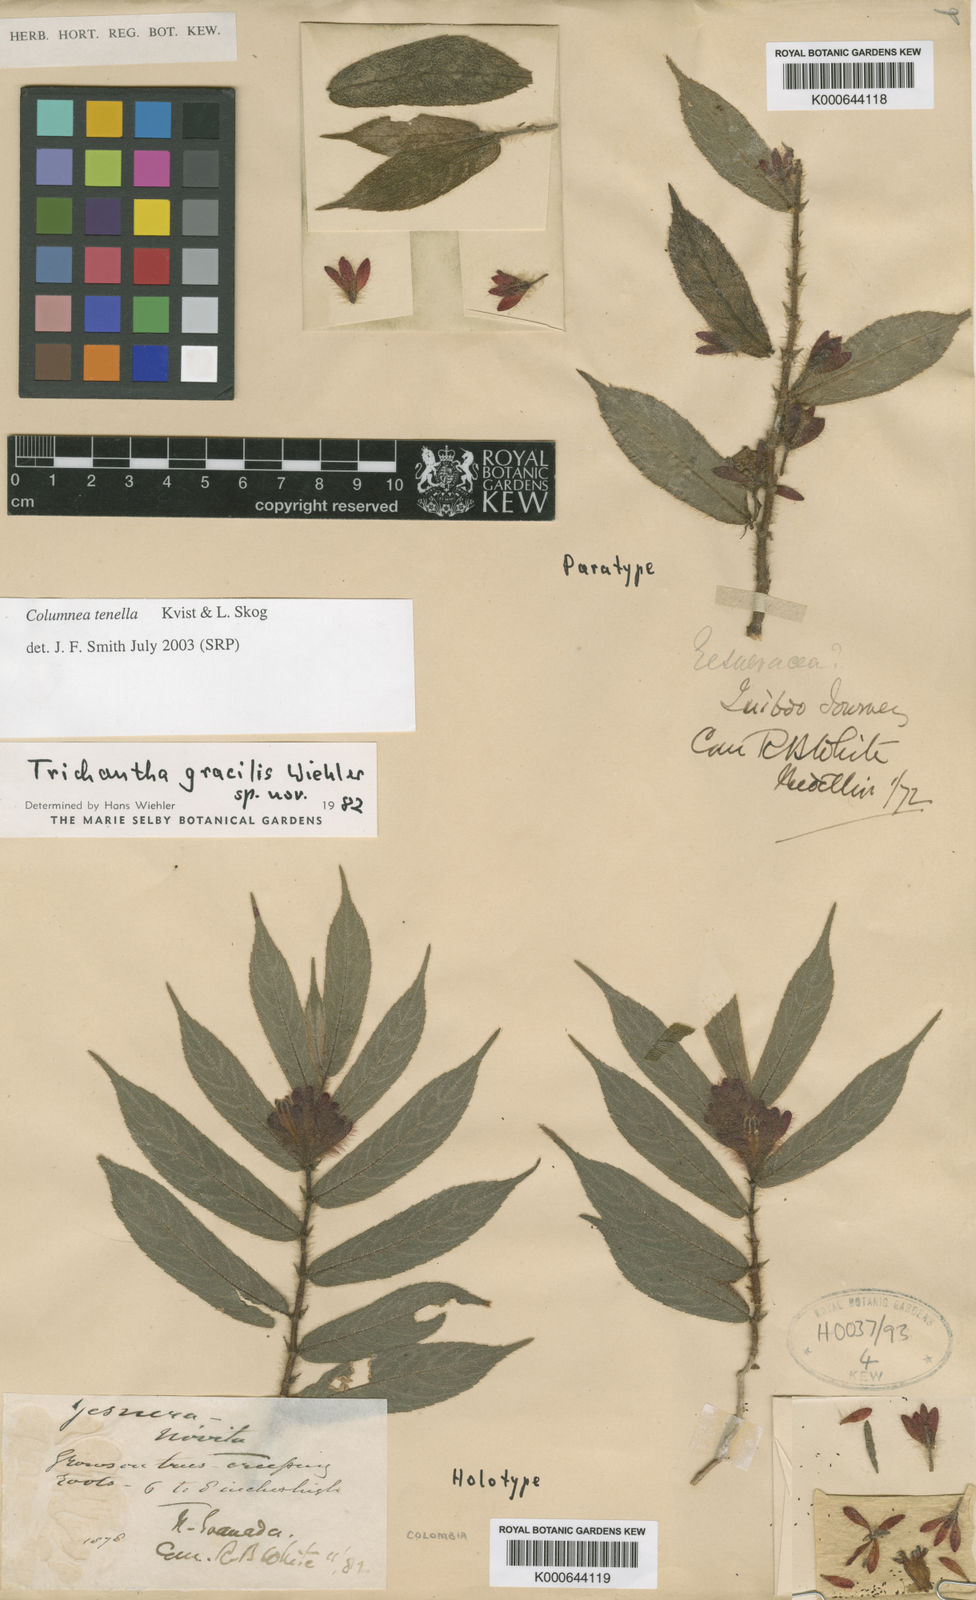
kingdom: Plantae
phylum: Tracheophyta
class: Magnoliopsida
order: Lamiales
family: Gesneriaceae
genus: Columnea
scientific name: Columnea tenella
